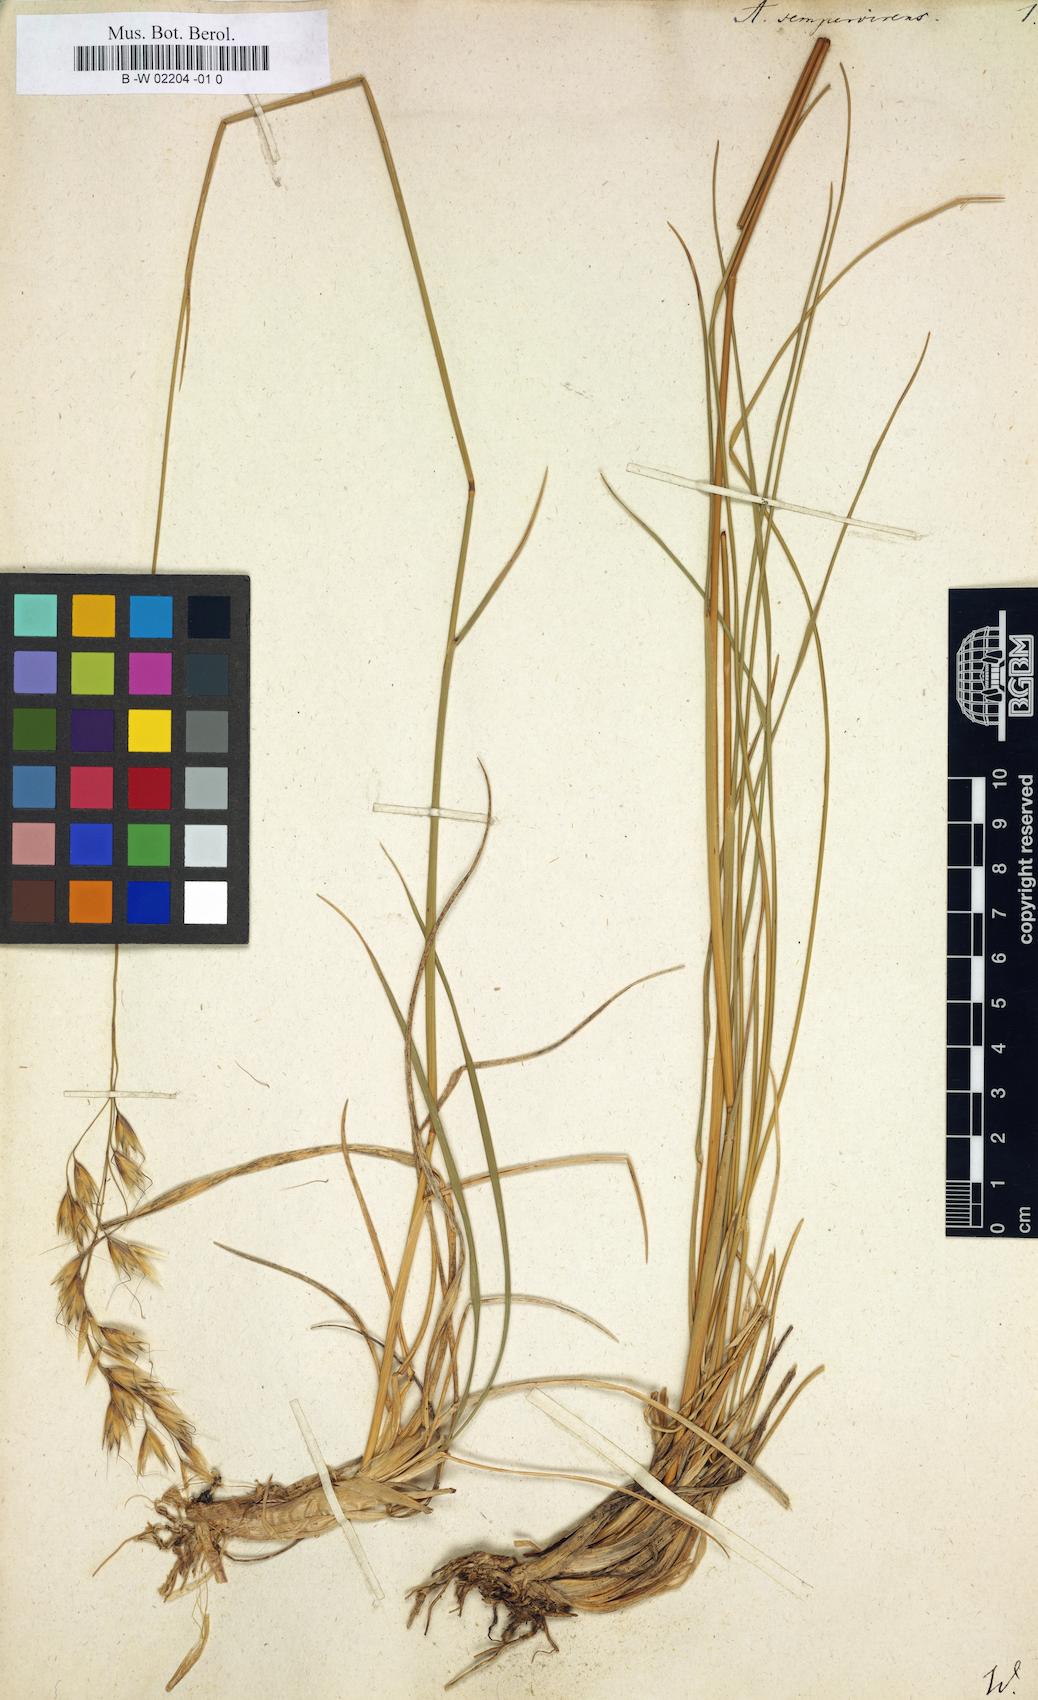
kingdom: Plantae
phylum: Tracheophyta
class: Liliopsida
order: Poales
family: Poaceae
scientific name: Poaceae
